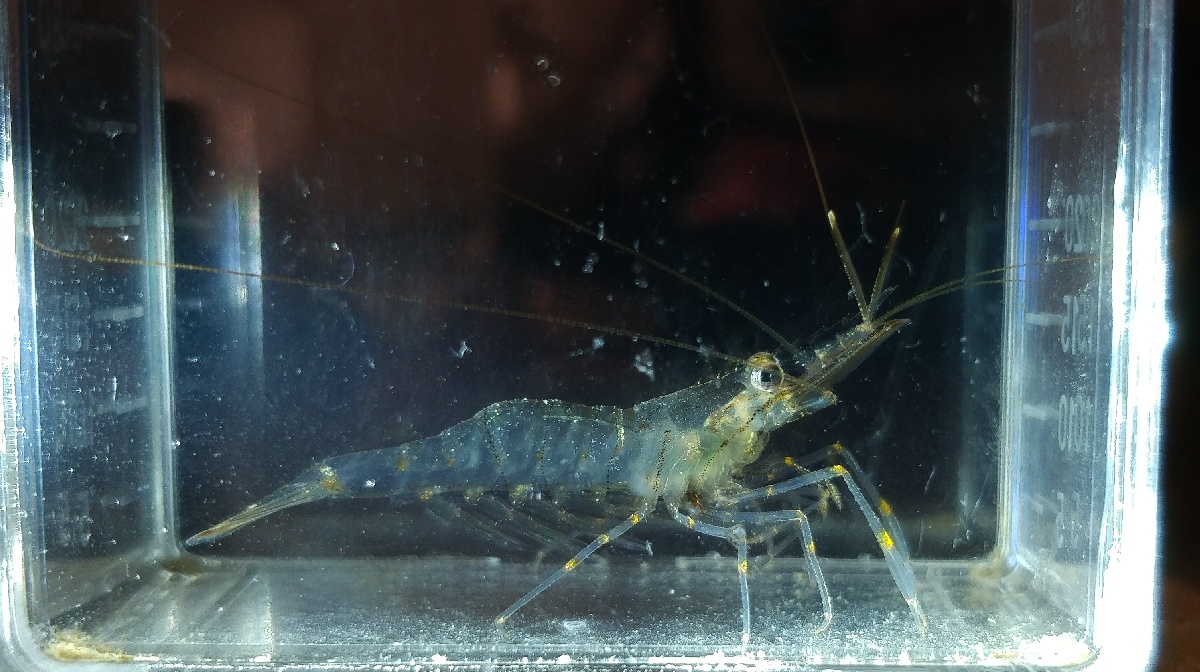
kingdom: Animalia
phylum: Arthropoda
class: Malacostraca
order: Decapoda
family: Palaemonidae
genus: Palaemon
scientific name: Palaemon elegans
